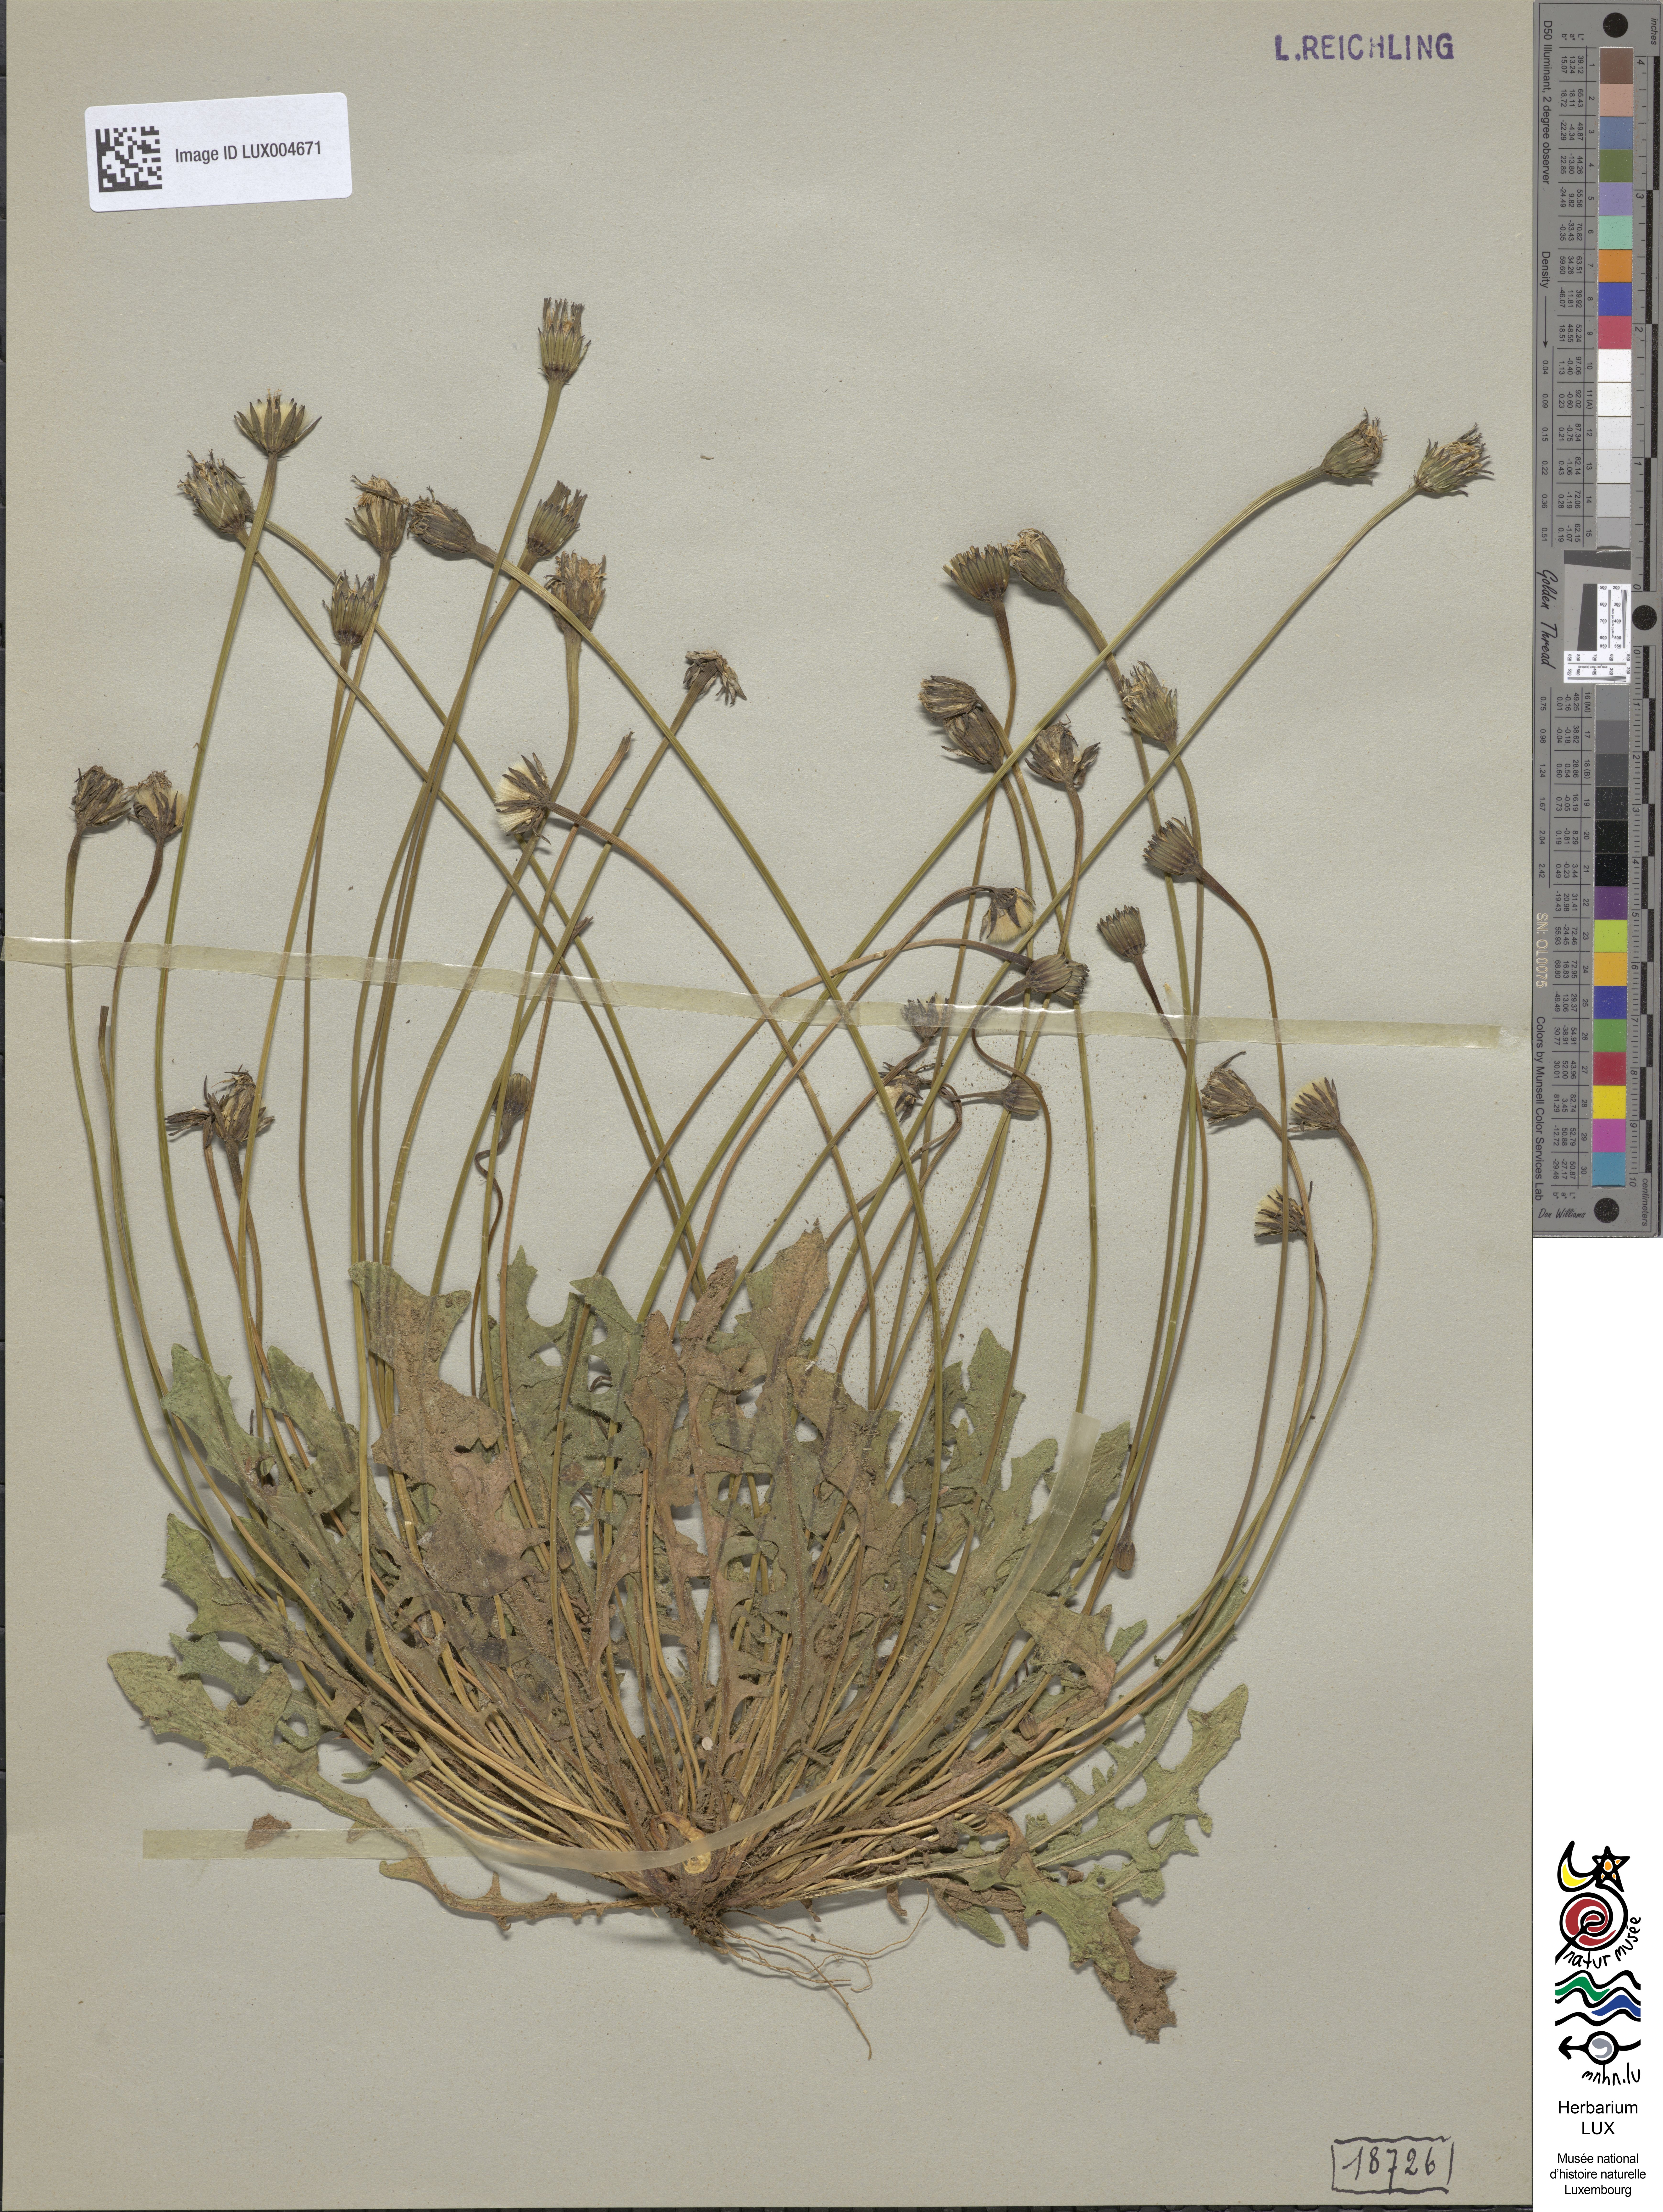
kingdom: Plantae
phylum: Tracheophyta
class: Magnoliopsida
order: Asterales
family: Asteraceae
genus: Thrincia
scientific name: Thrincia saxatilis
